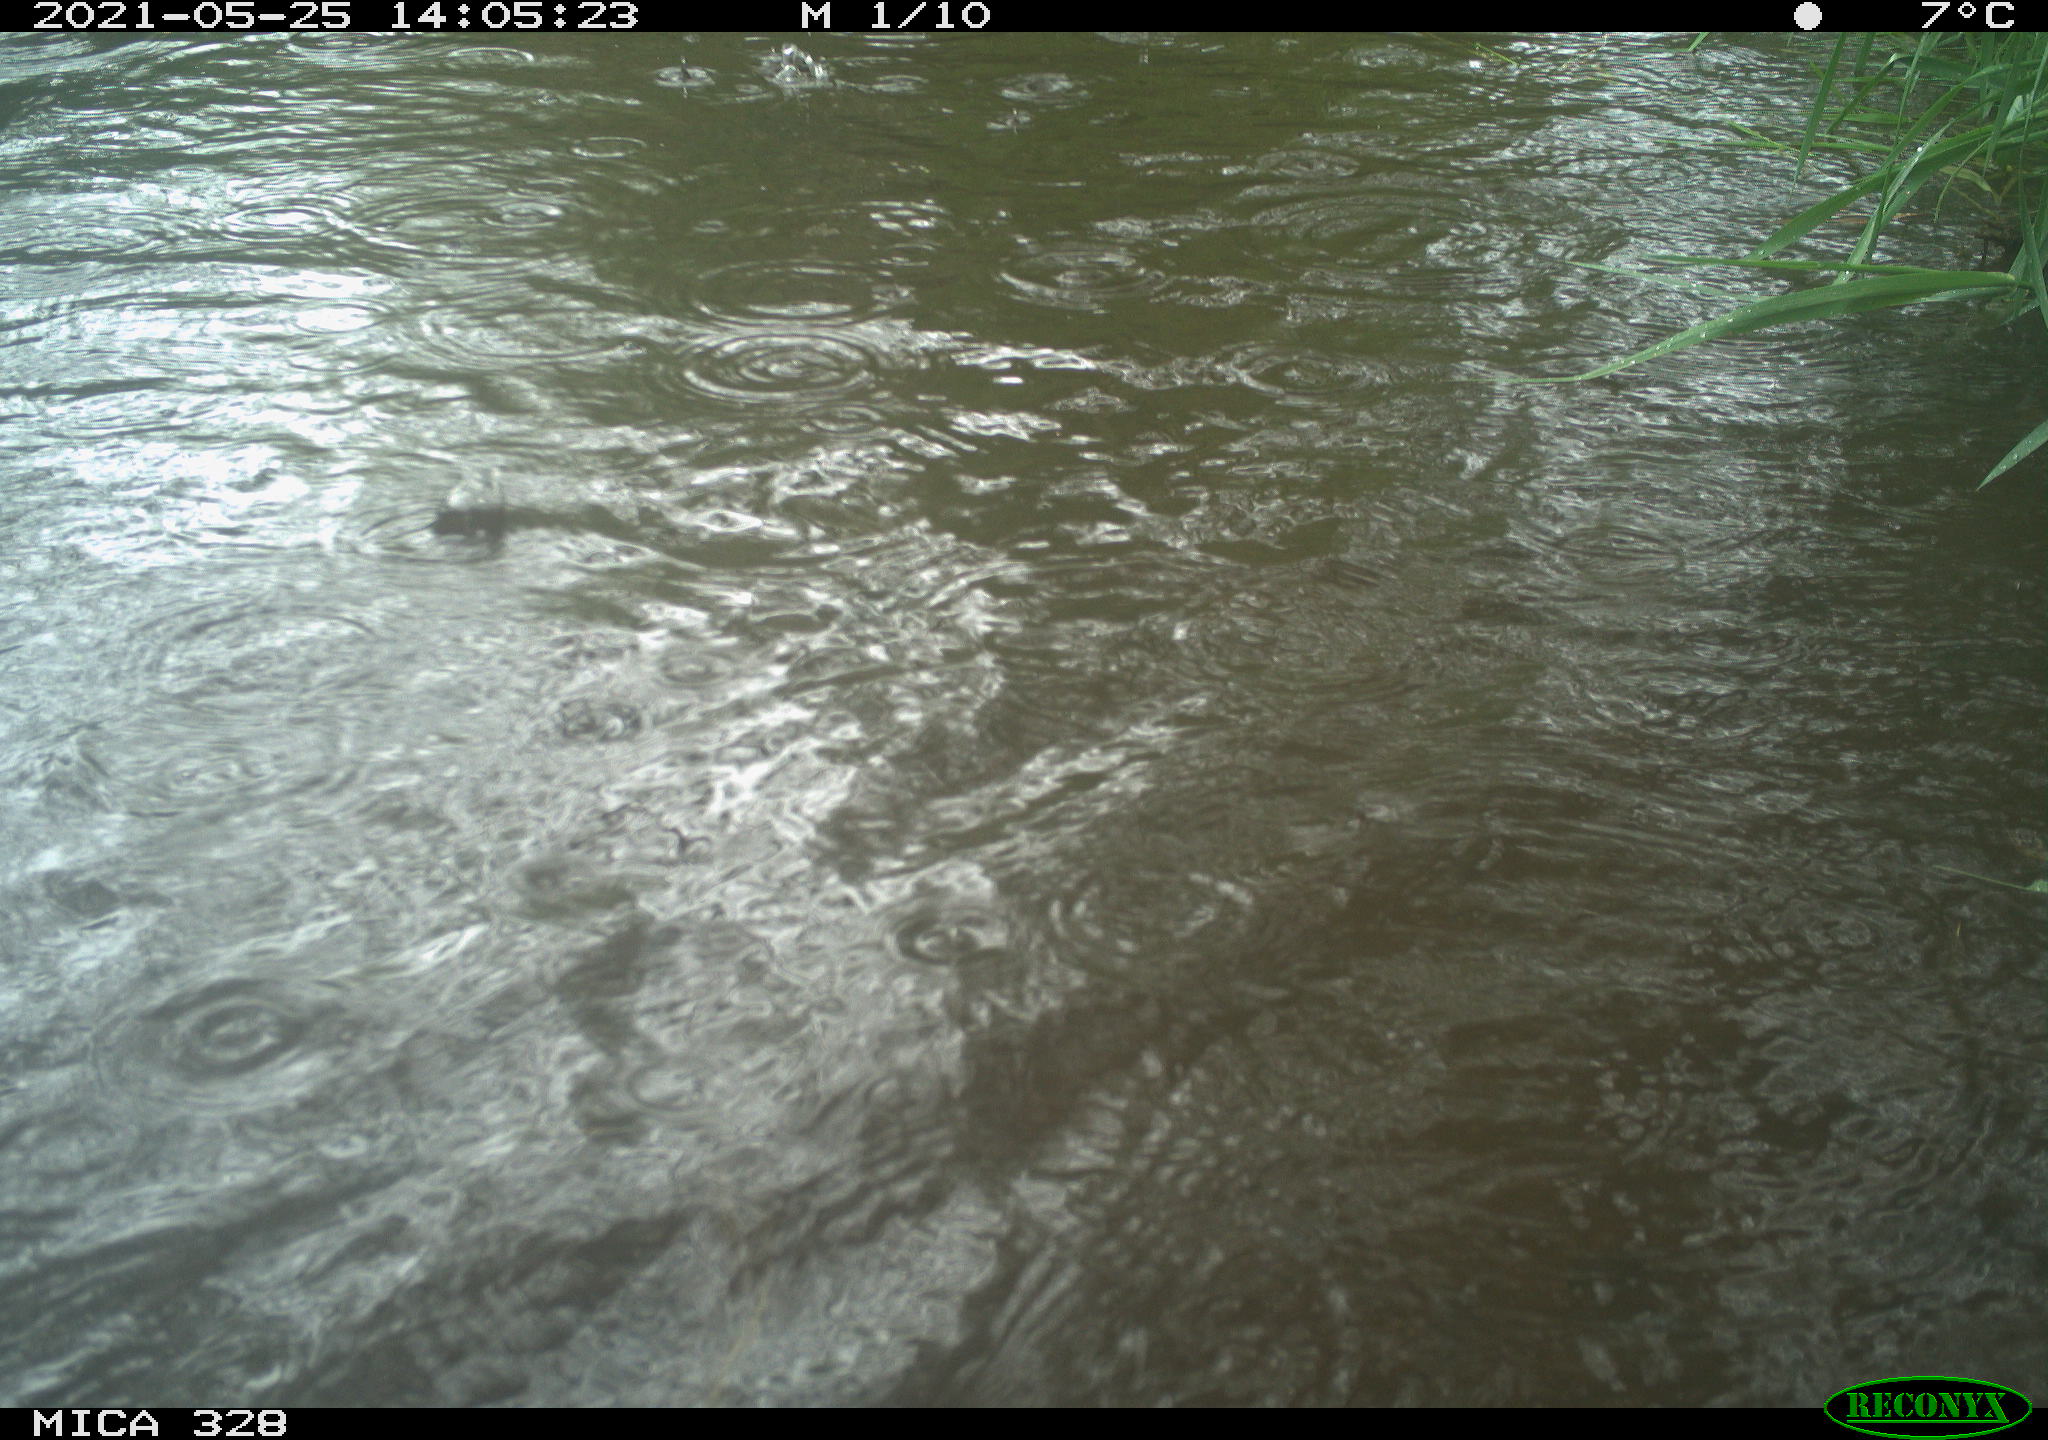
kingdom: Animalia
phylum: Chordata
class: Aves
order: Anseriformes
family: Anatidae
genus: Aix
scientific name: Aix galericulata
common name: Mandarin duck
